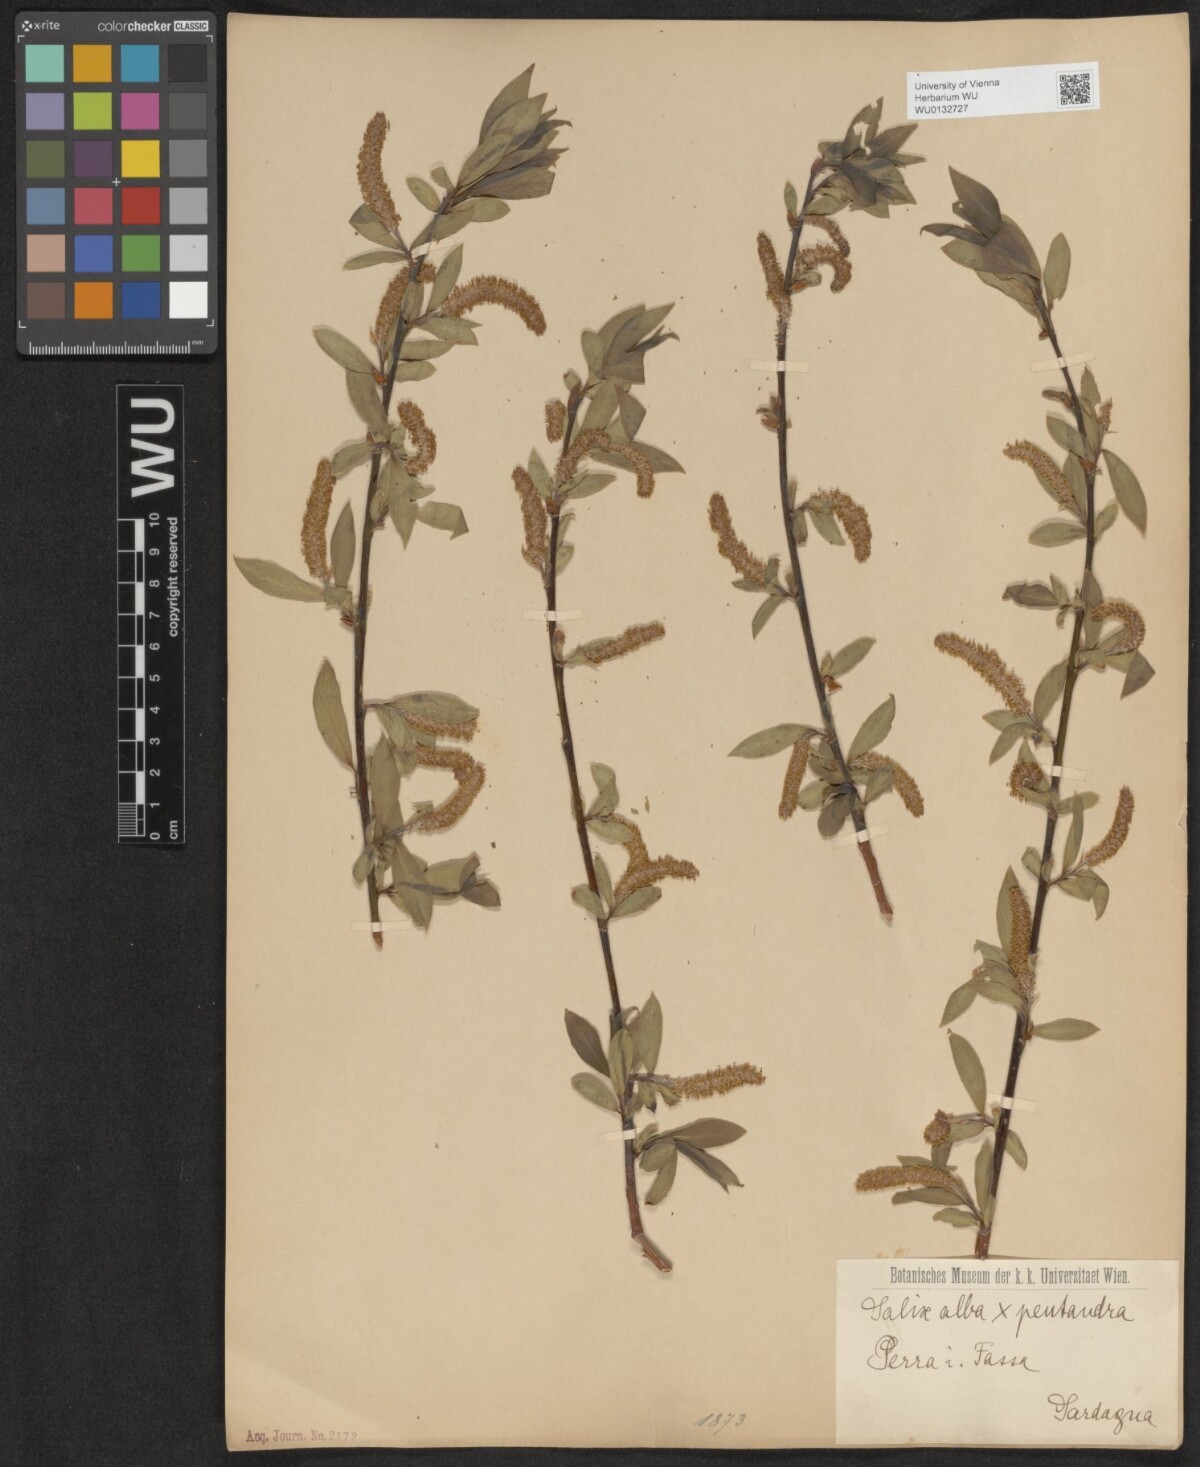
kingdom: Plantae
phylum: Tracheophyta
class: Magnoliopsida
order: Malpighiales
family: Salicaceae
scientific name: Salicaceae
